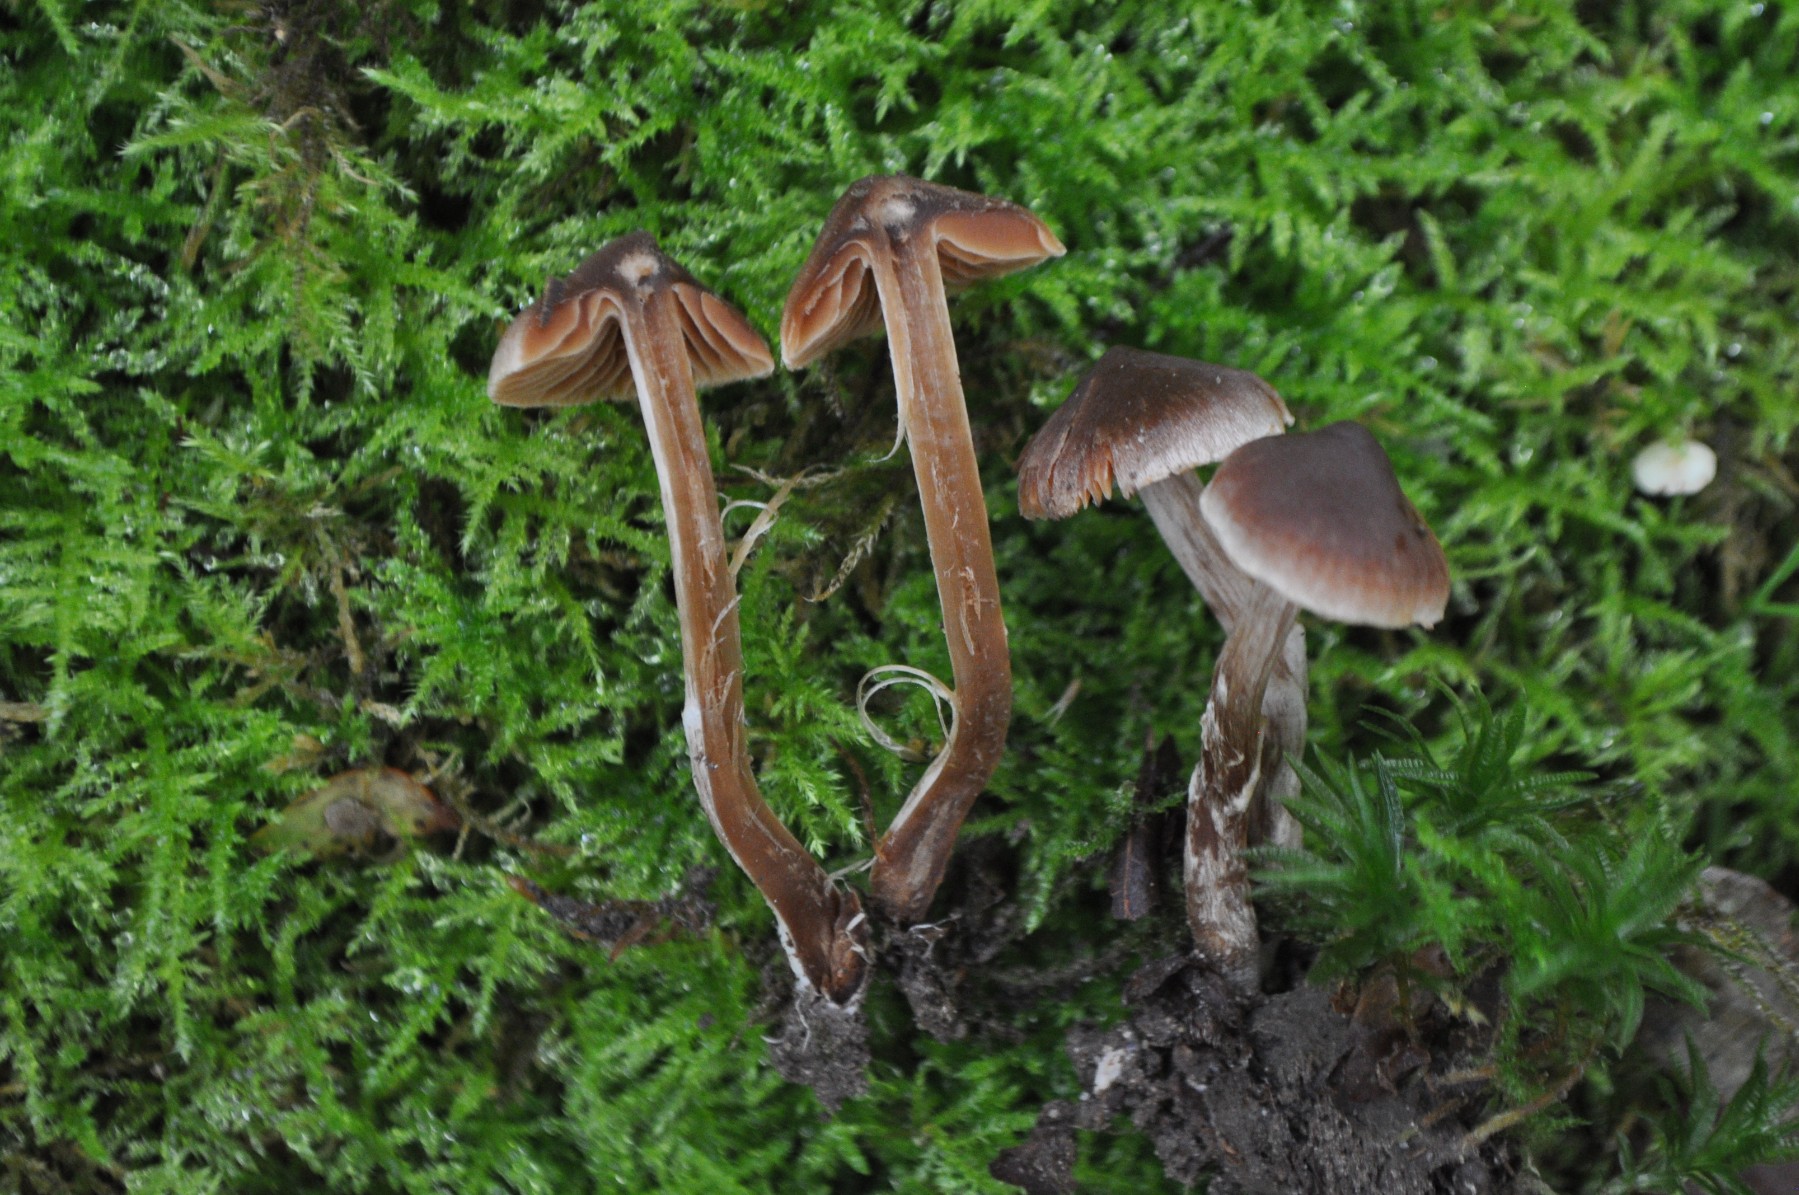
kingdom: Fungi
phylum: Basidiomycota
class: Agaricomycetes
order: Agaricales
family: Cortinariaceae
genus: Cortinarius
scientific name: Cortinarius
